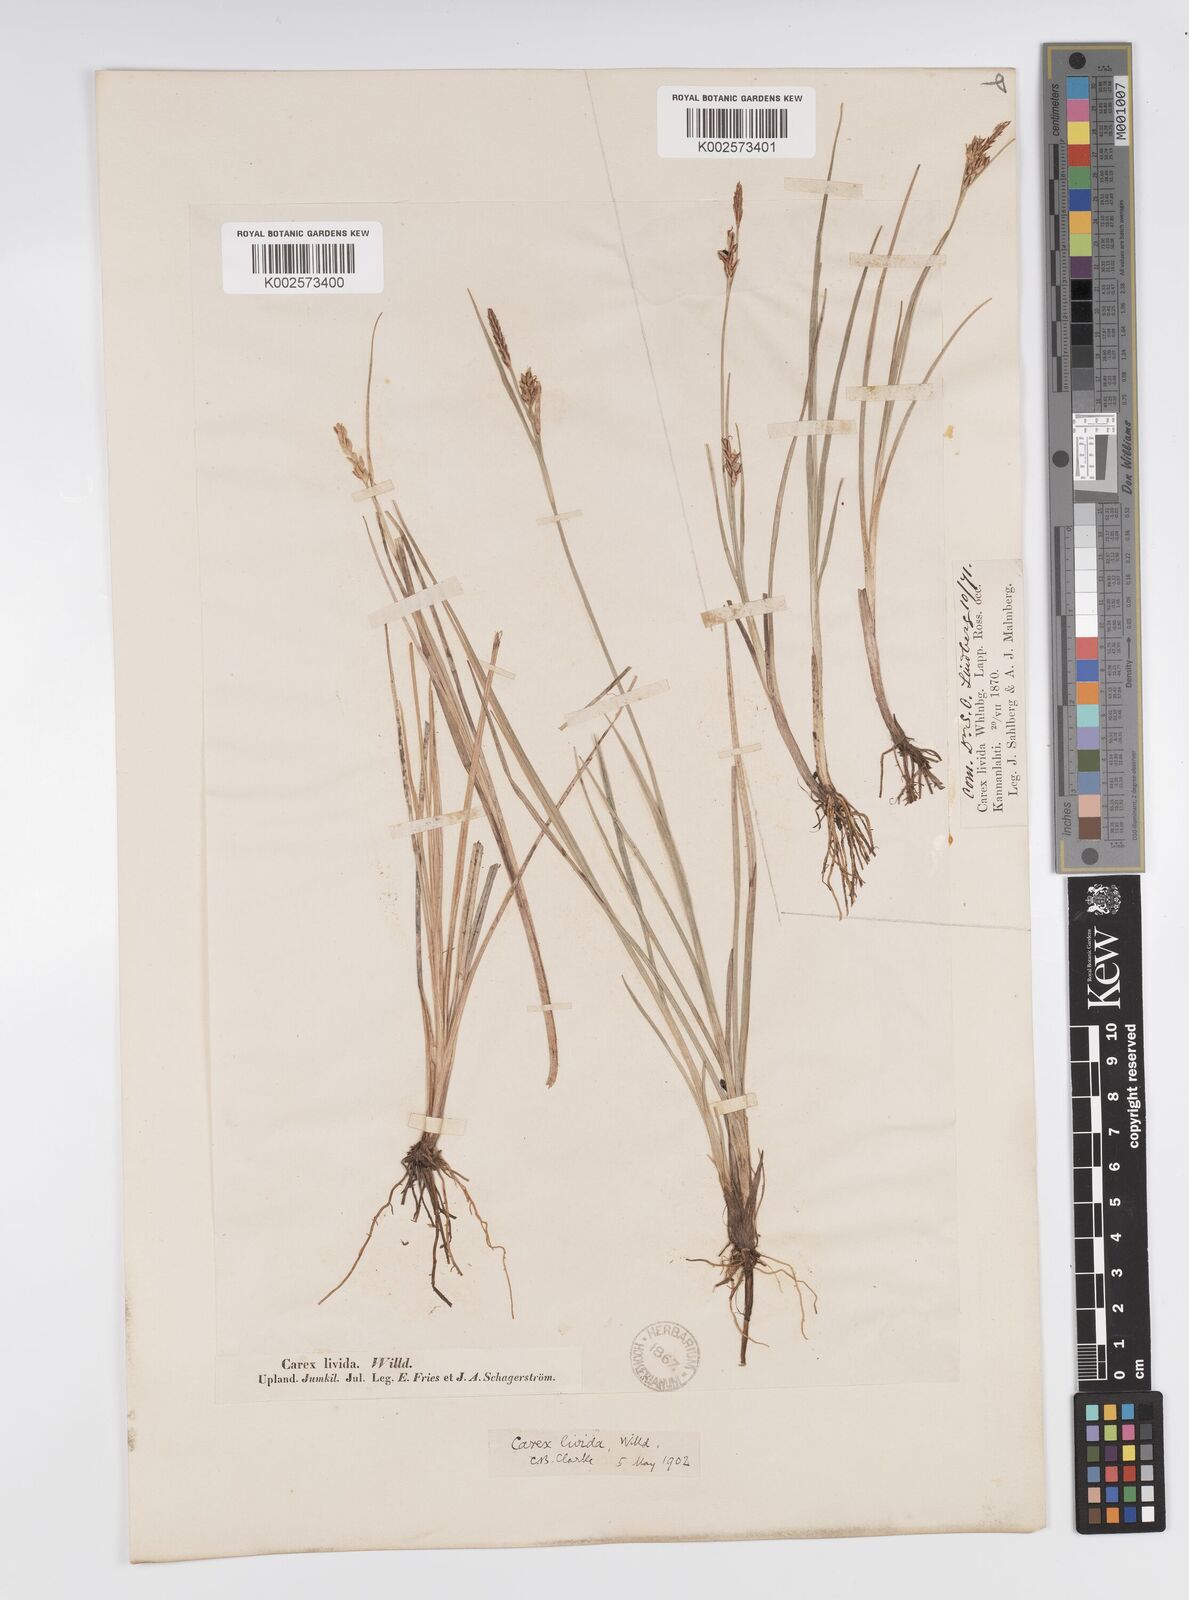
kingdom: Plantae
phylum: Tracheophyta
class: Liliopsida
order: Poales
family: Cyperaceae
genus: Carex
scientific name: Carex livida
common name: Livid sedge
